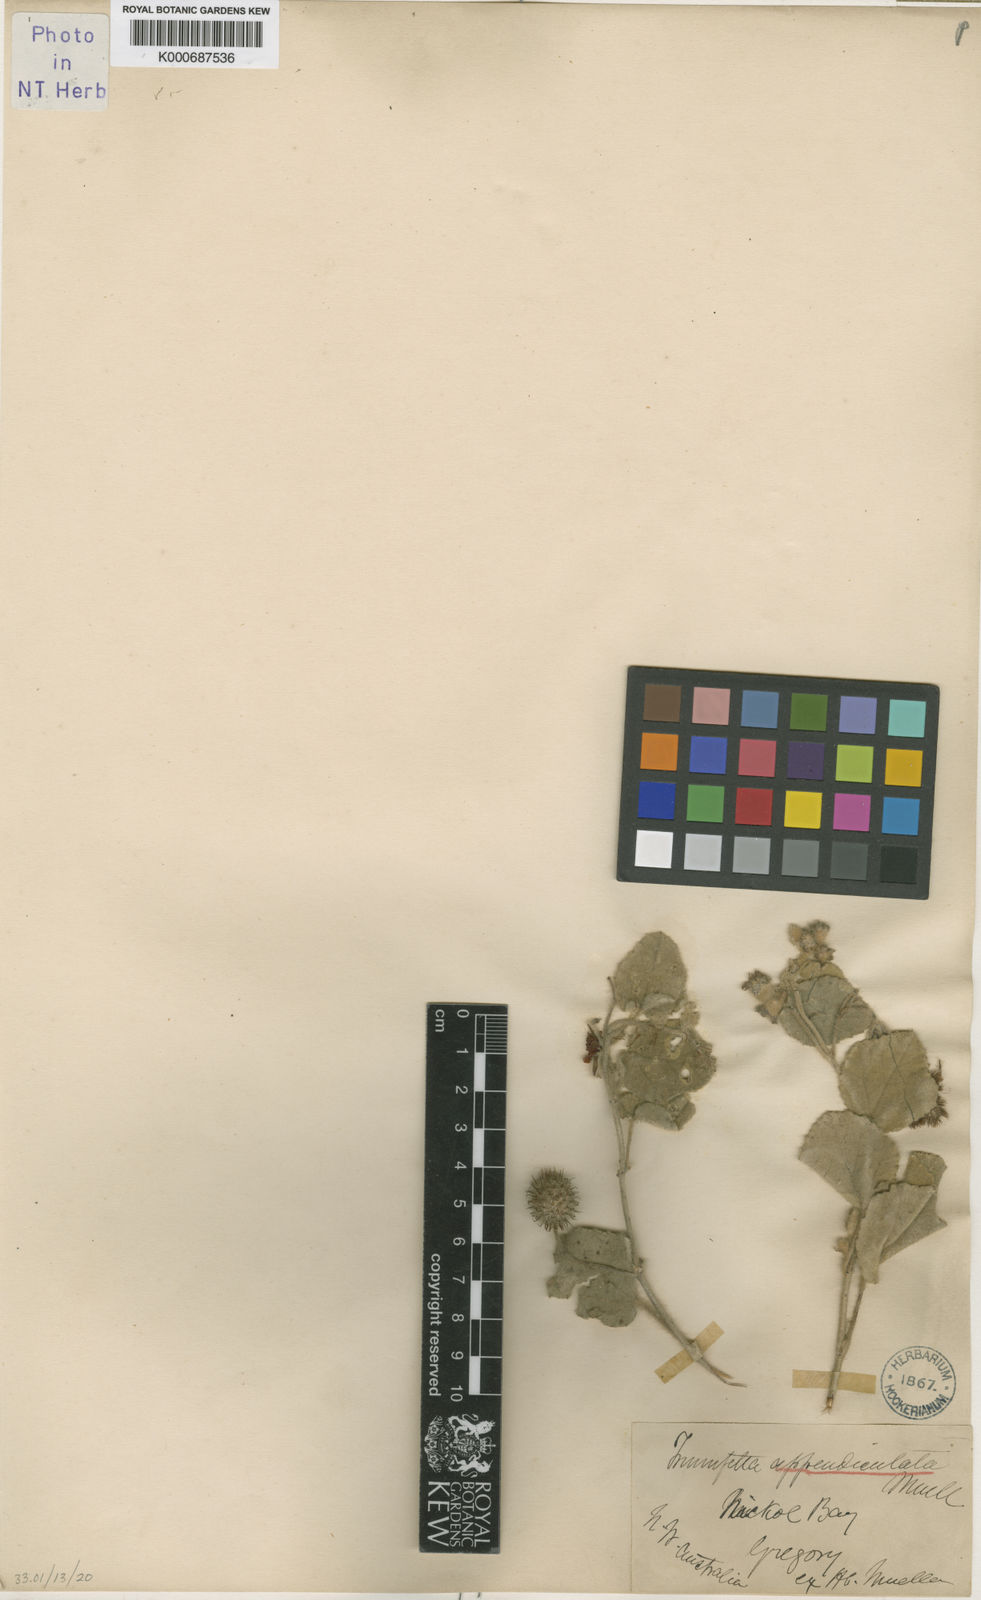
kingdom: Plantae
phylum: Tracheophyta
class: Magnoliopsida
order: Malvales
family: Malvaceae
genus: Triumfetta
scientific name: Triumfetta appendiculata
